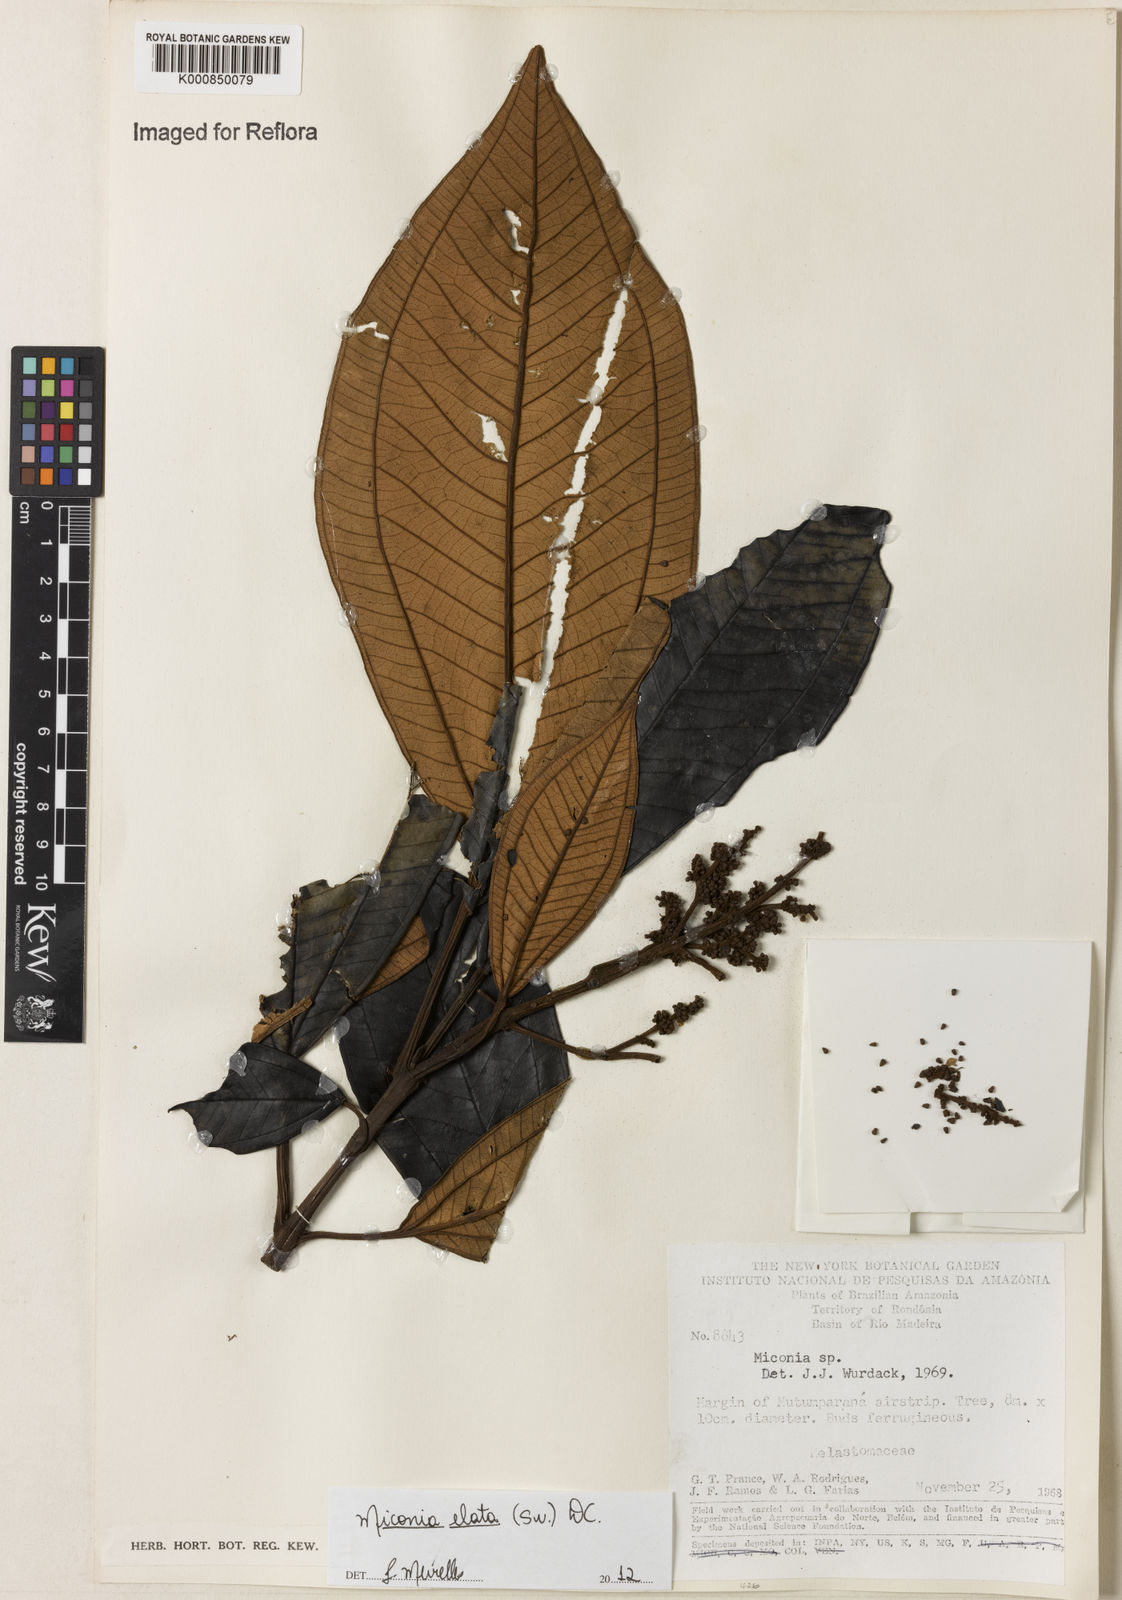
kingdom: Plantae
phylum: Tracheophyta
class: Magnoliopsida
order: Myrtales
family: Melastomataceae
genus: Miconia
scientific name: Miconia elata
